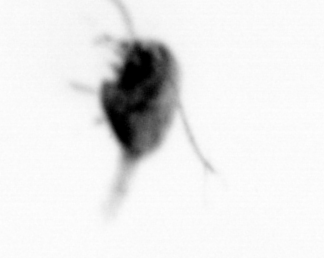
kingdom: Animalia
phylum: Arthropoda
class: Maxillopoda
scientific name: Maxillopoda
